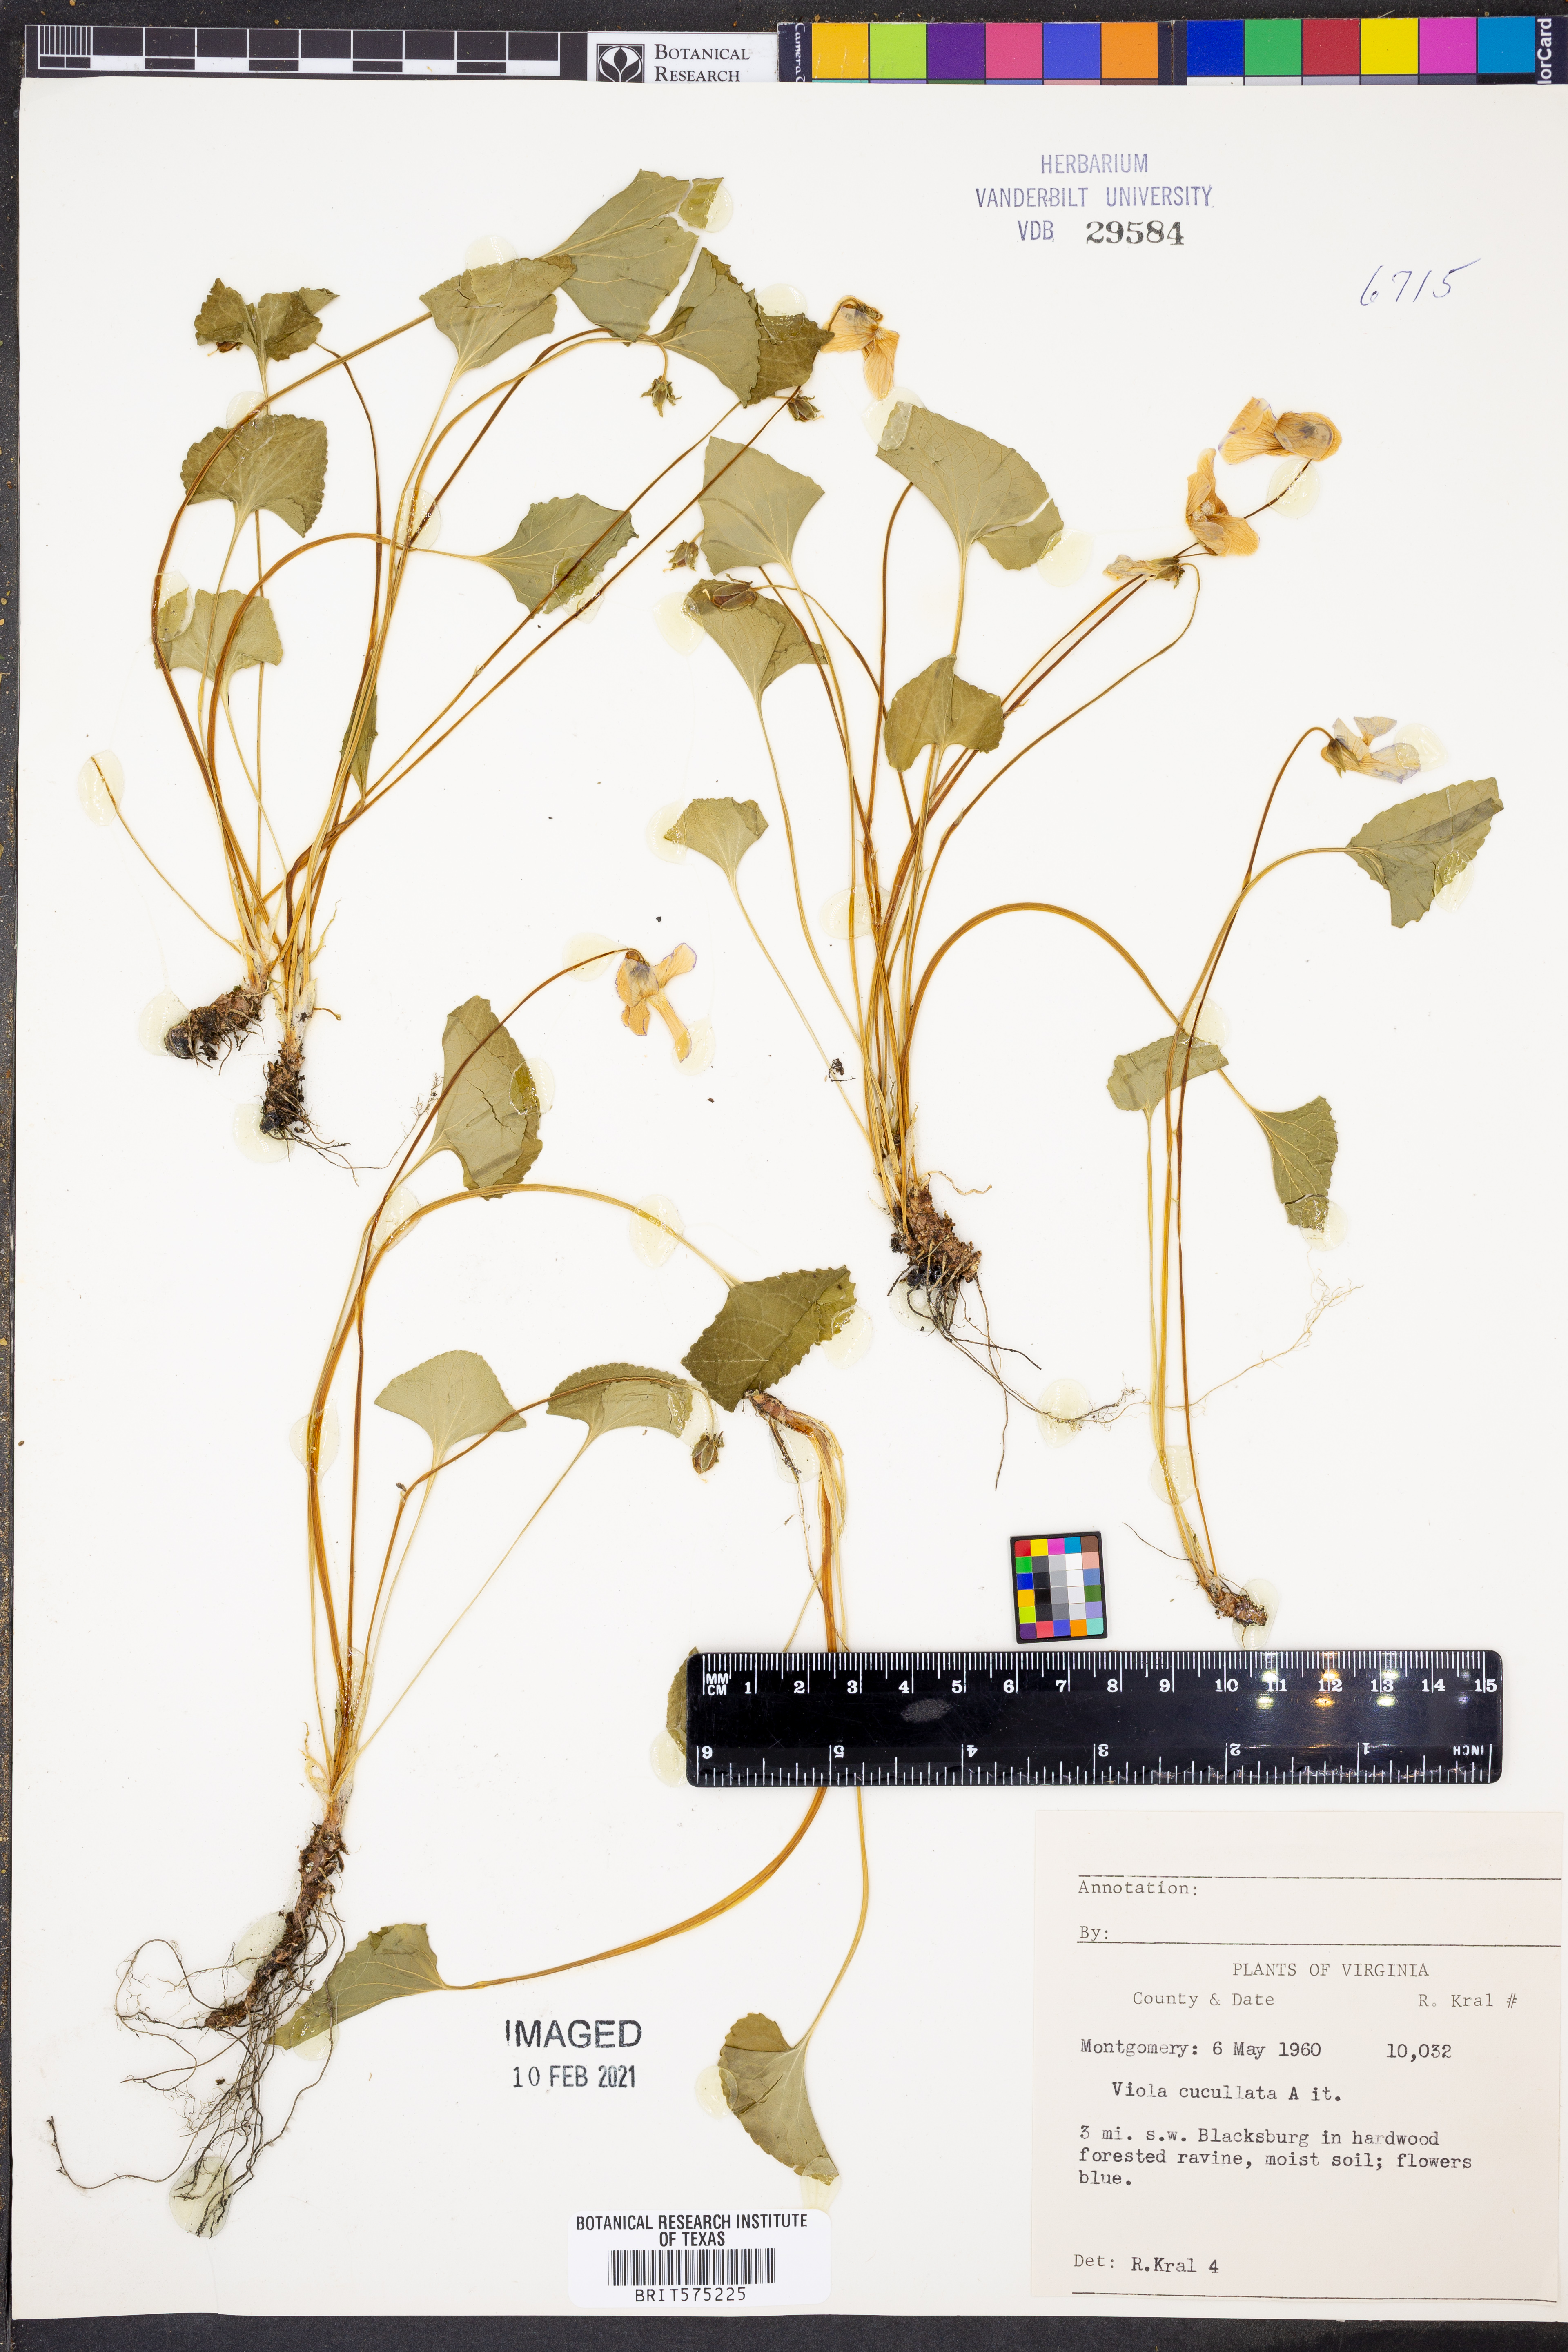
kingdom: Plantae
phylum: Tracheophyta
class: Magnoliopsida
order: Malpighiales
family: Violaceae
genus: Viola
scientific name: Viola cucullata
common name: Marsh blue violet
